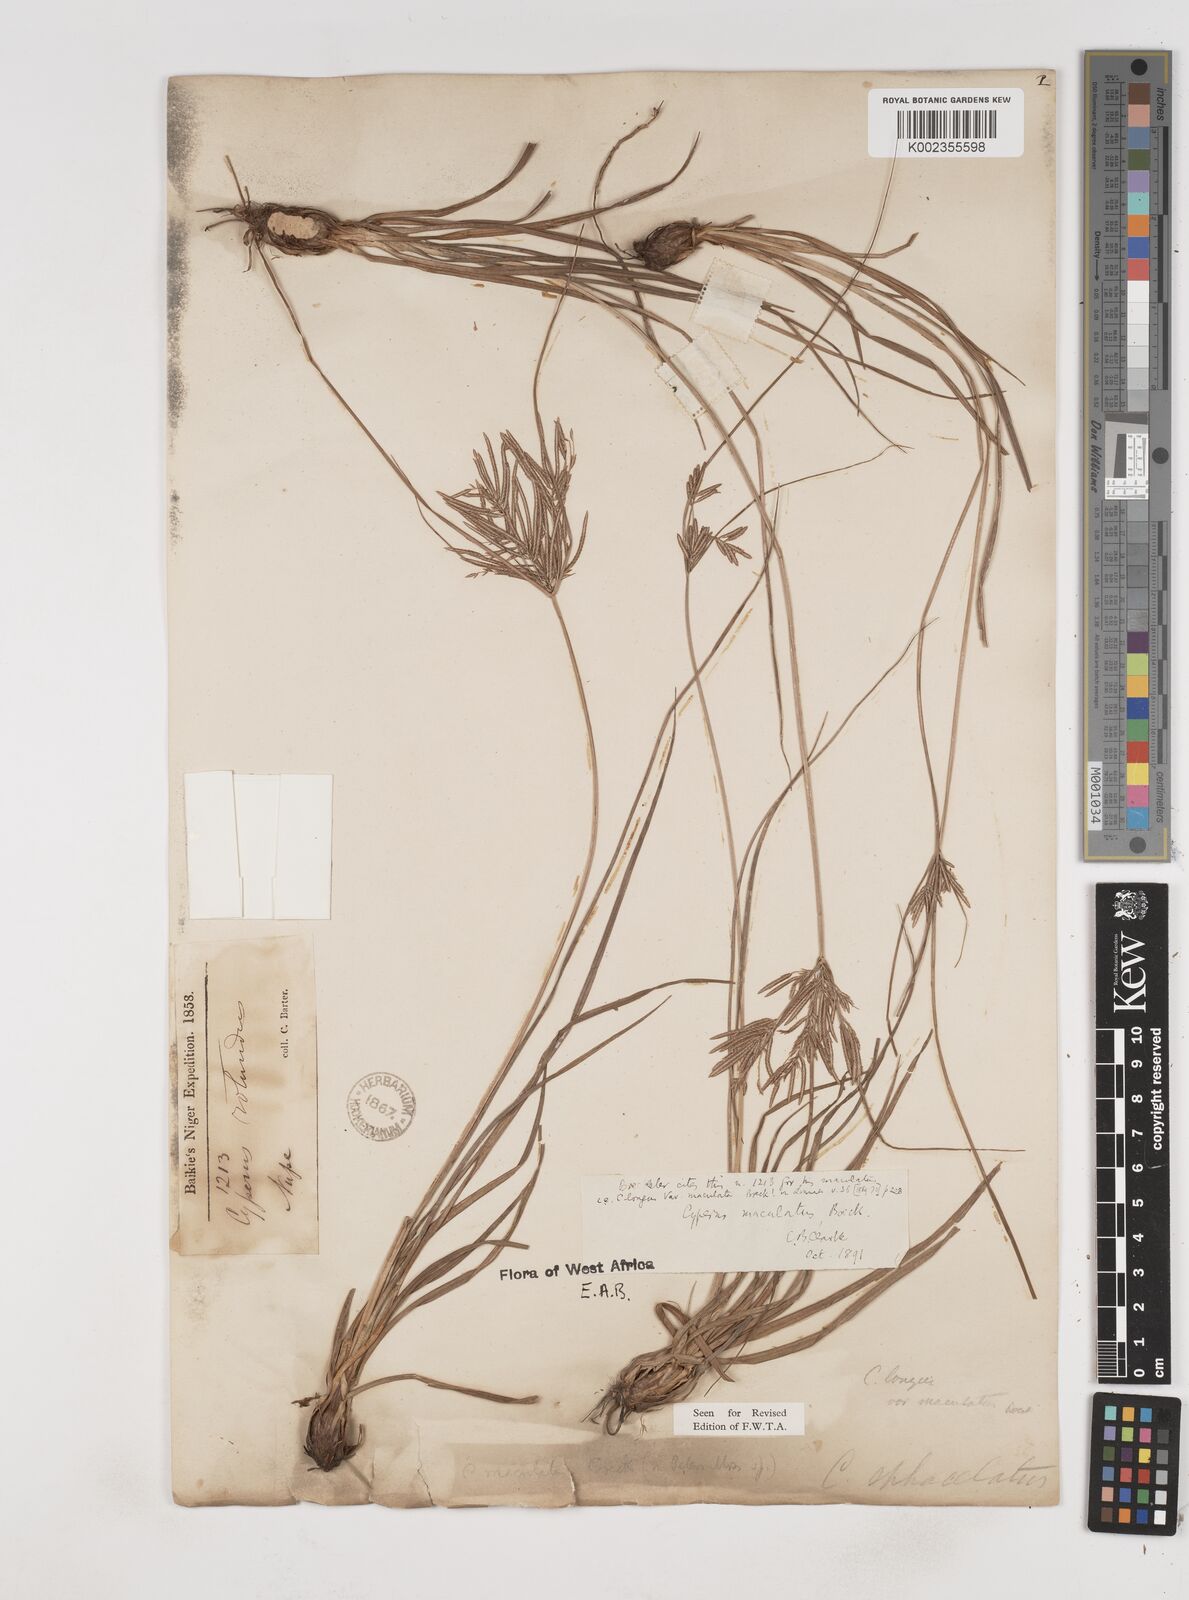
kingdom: Plantae
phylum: Tracheophyta
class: Liliopsida
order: Poales
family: Cyperaceae
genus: Cyperus
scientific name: Cyperus maculatus
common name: Maculated sedge
